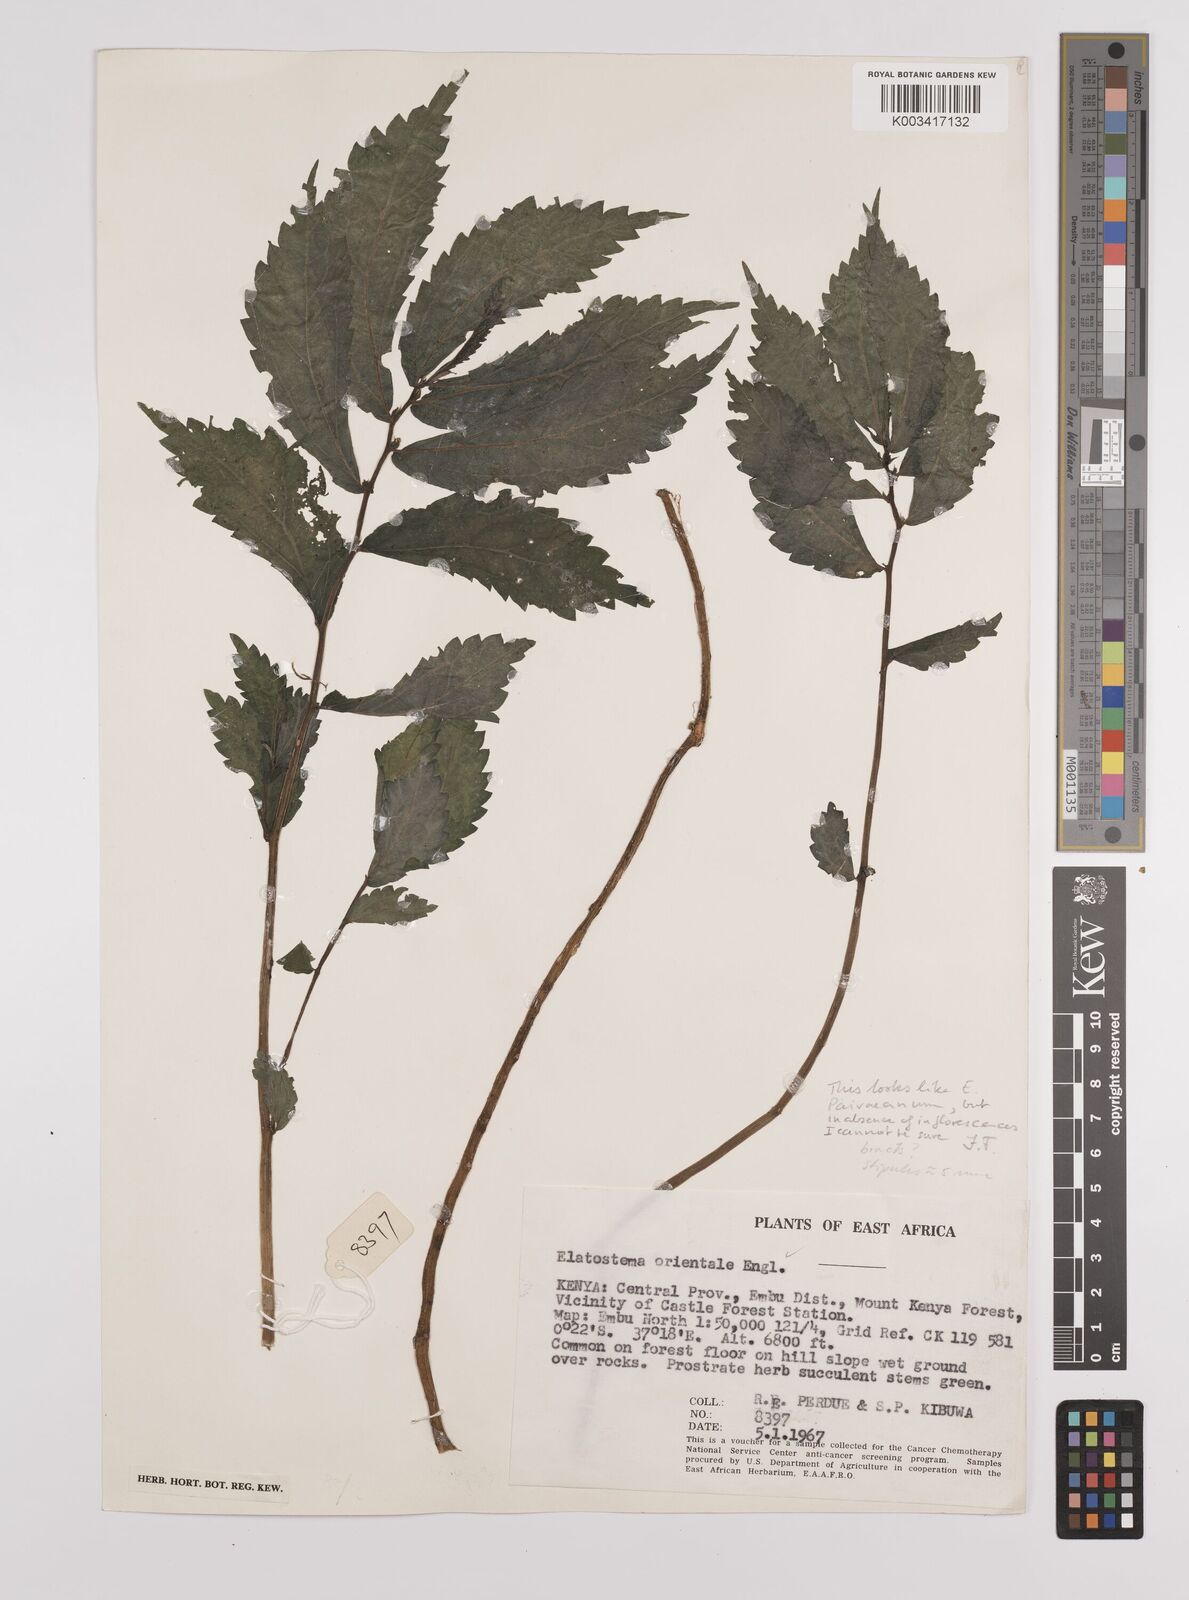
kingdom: Plantae
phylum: Tracheophyta
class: Magnoliopsida
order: Rosales
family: Urticaceae
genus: Elatostema
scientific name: Elatostema paivaeanum
